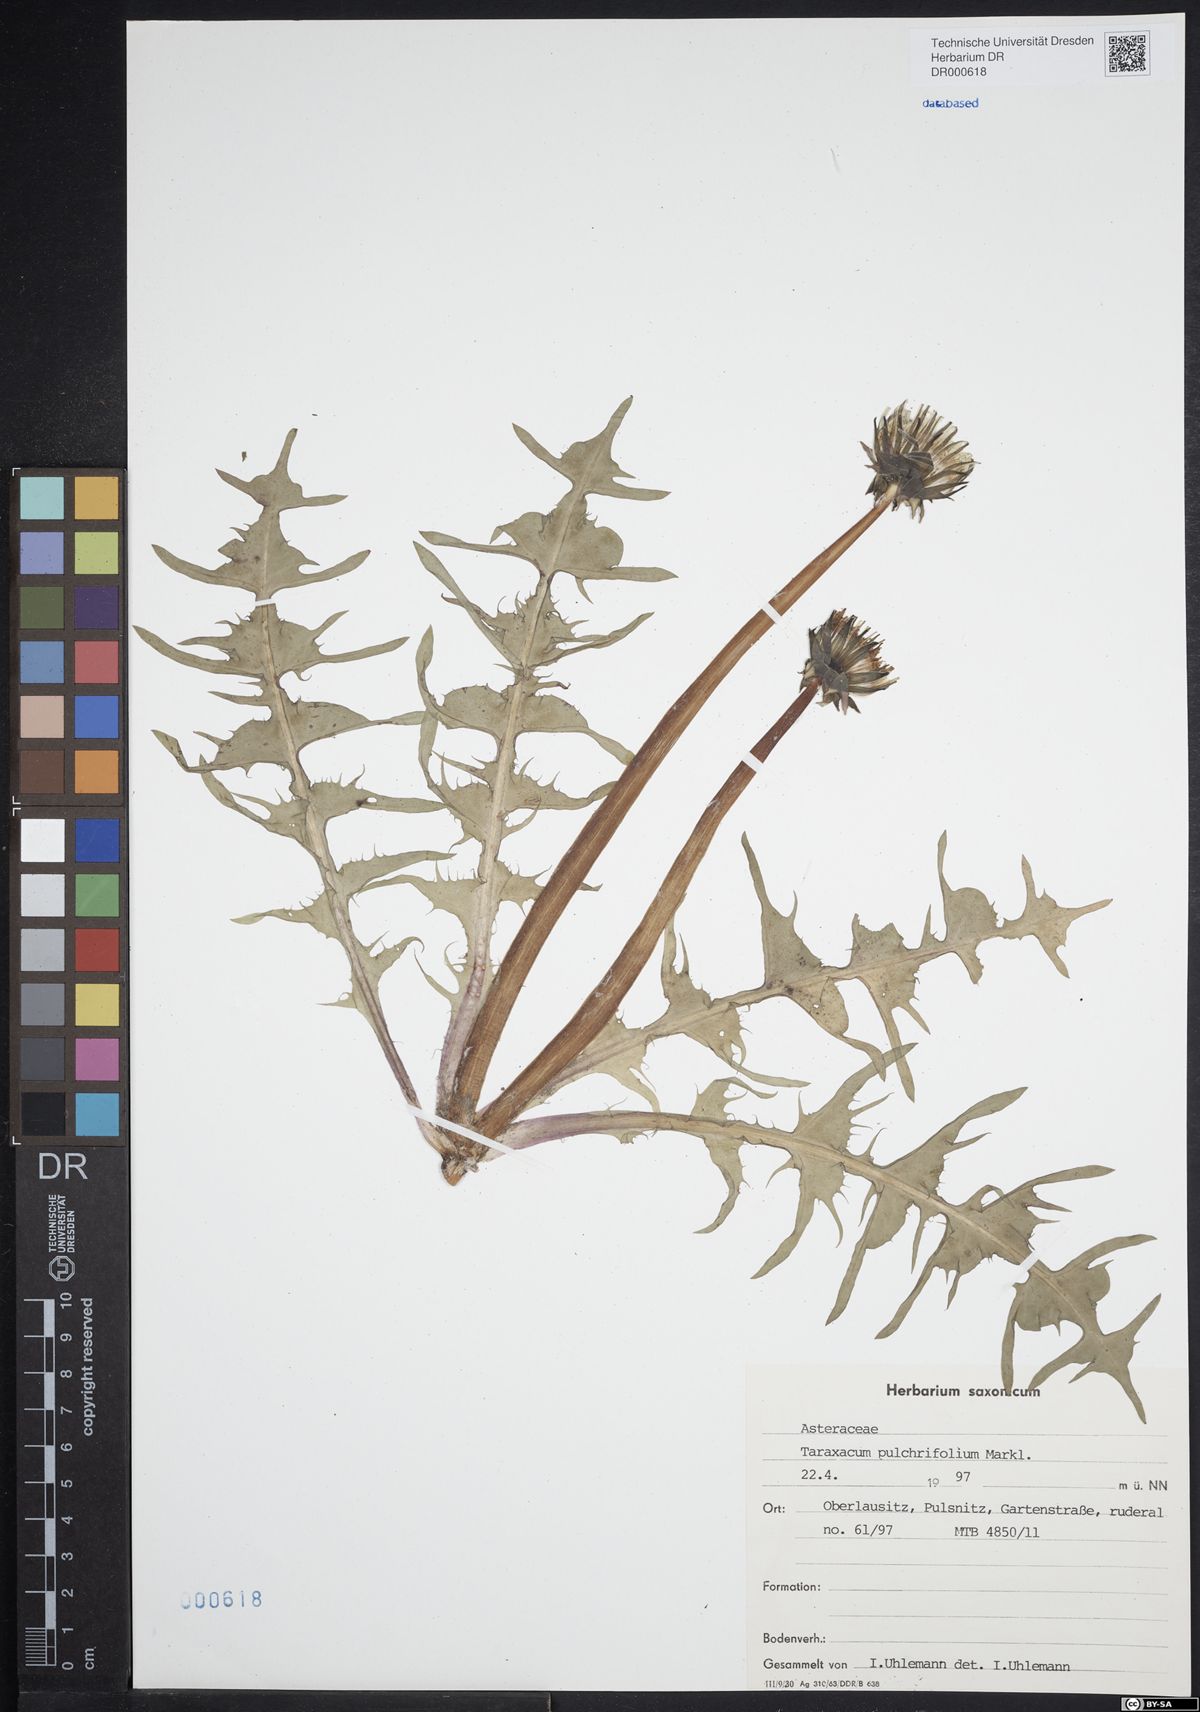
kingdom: Plantae
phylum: Tracheophyta
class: Magnoliopsida
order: Asterales
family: Asteraceae
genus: Taraxacum
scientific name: Taraxacum pulchrifolium
